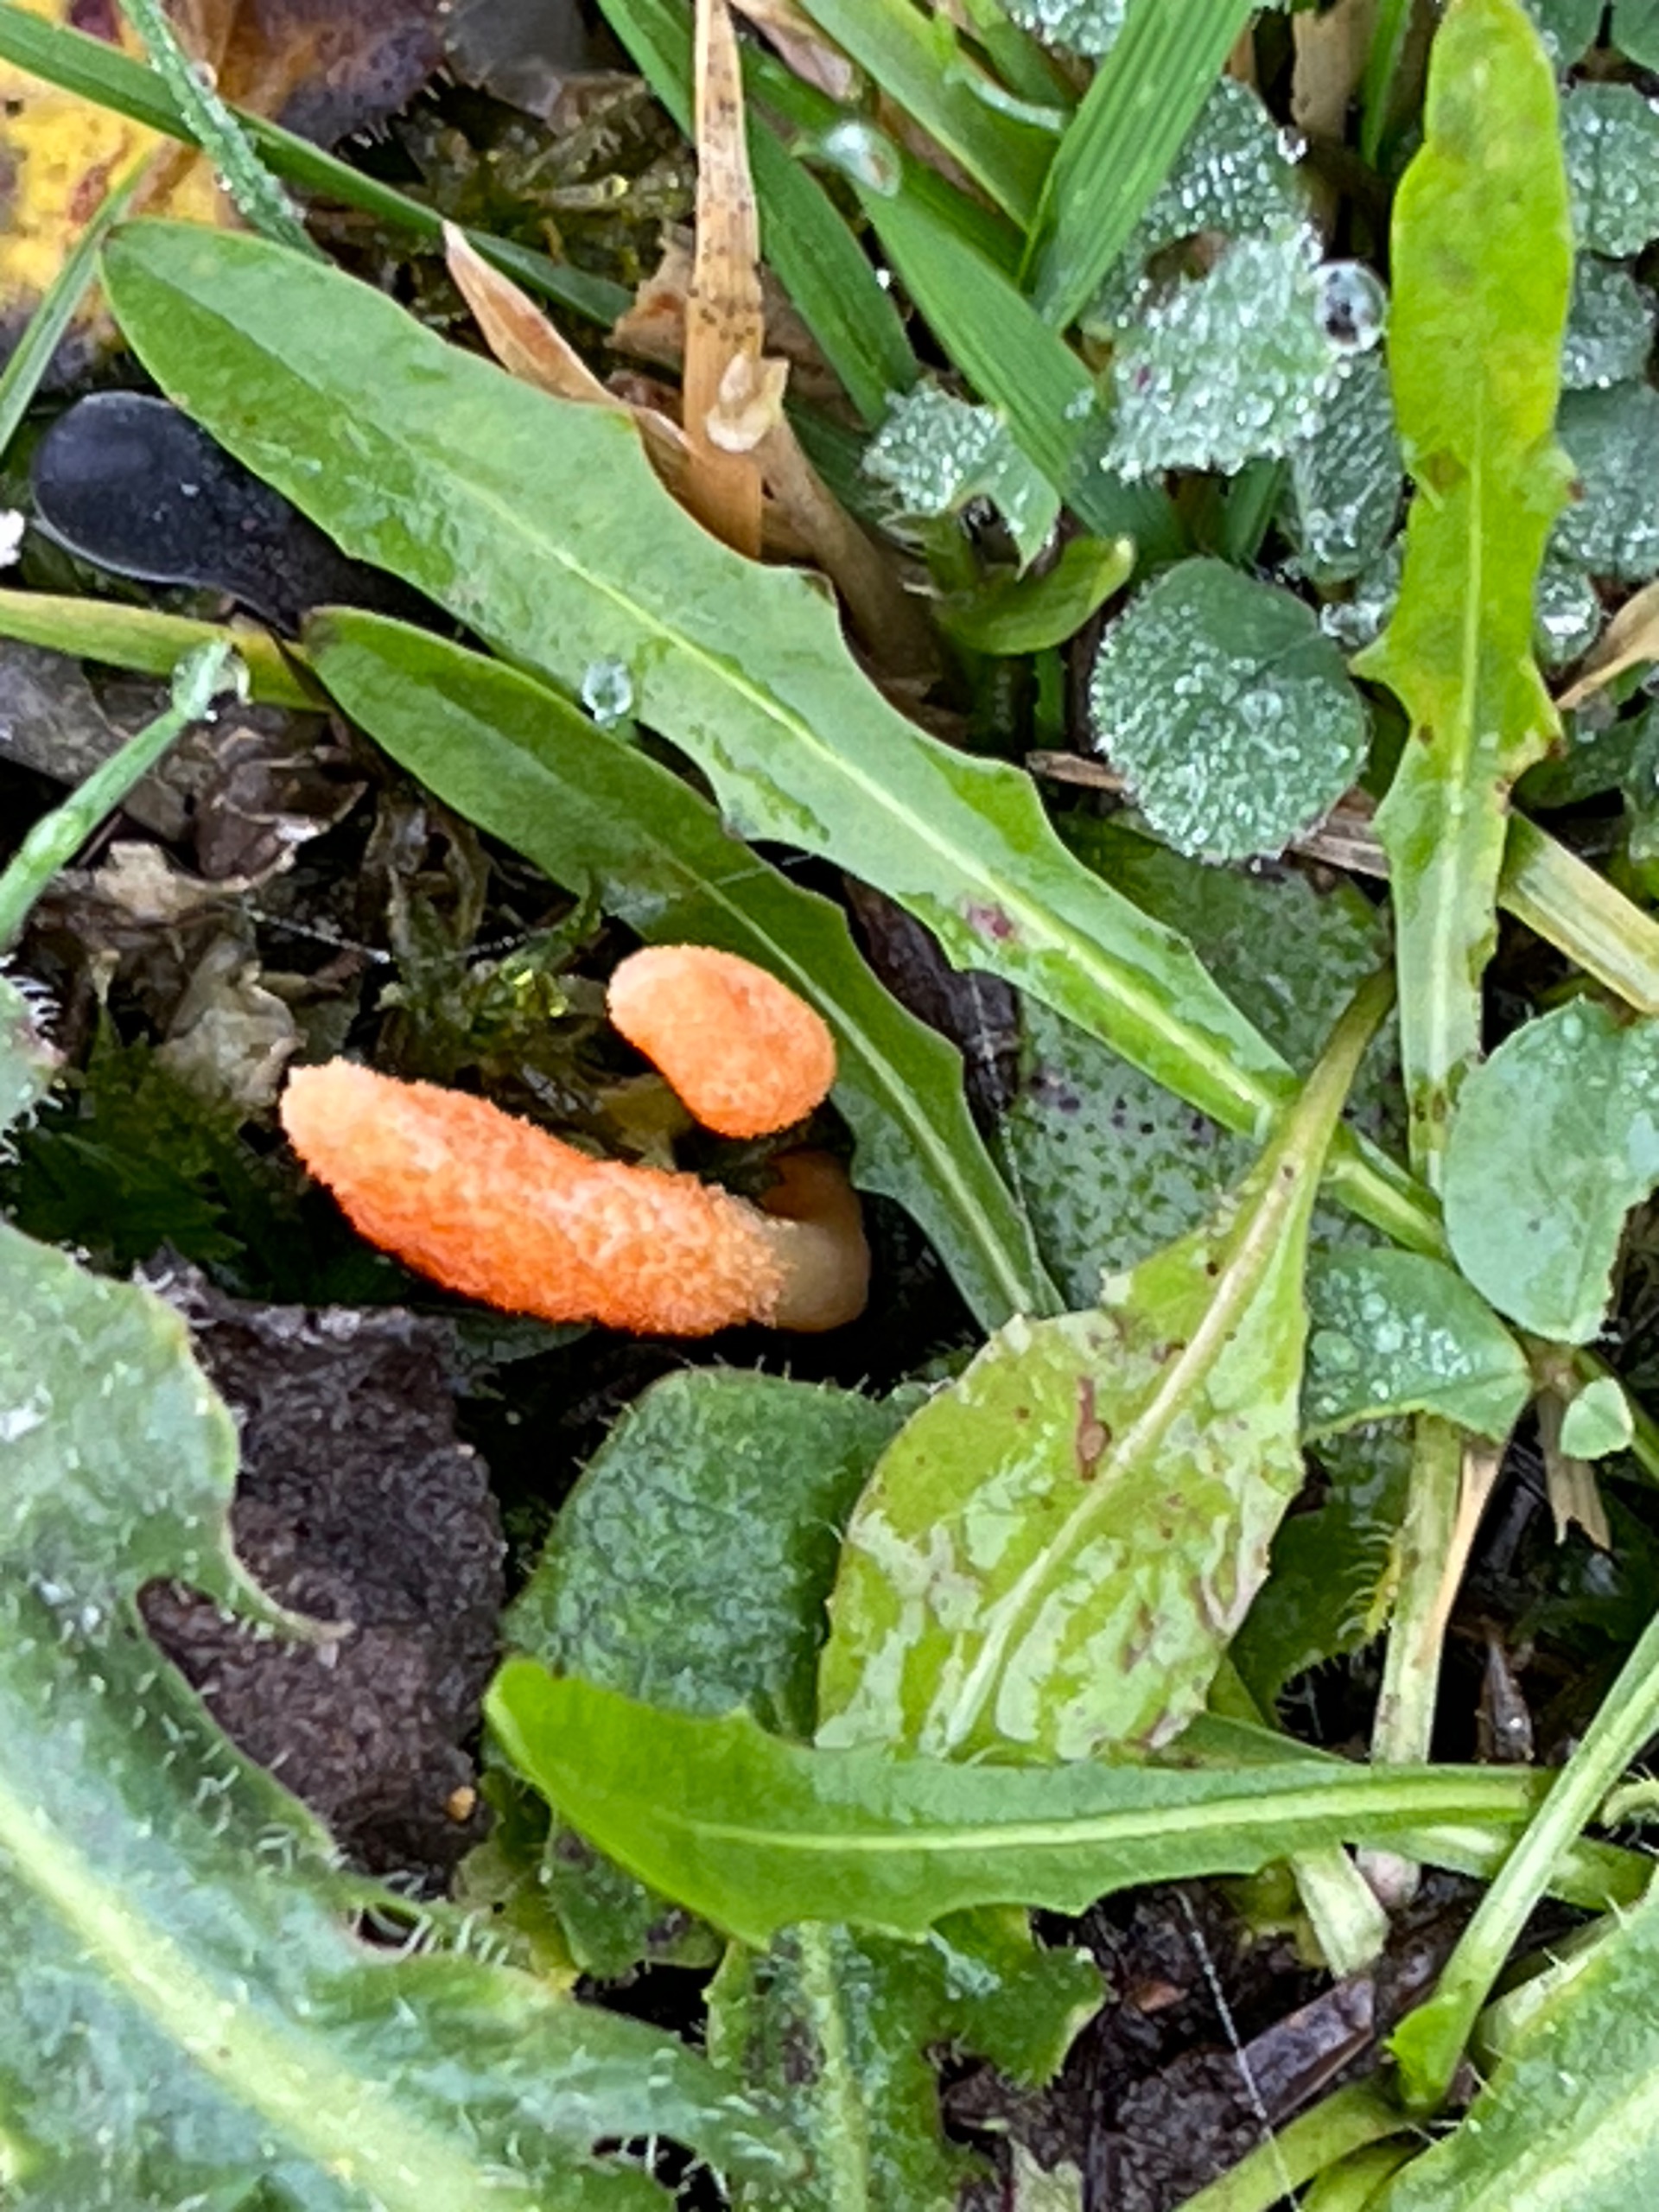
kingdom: Fungi
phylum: Ascomycota
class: Sordariomycetes
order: Hypocreales
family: Cordycipitaceae
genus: Cordyceps
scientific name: Cordyceps militaris
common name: Puppe-snyltekølle
